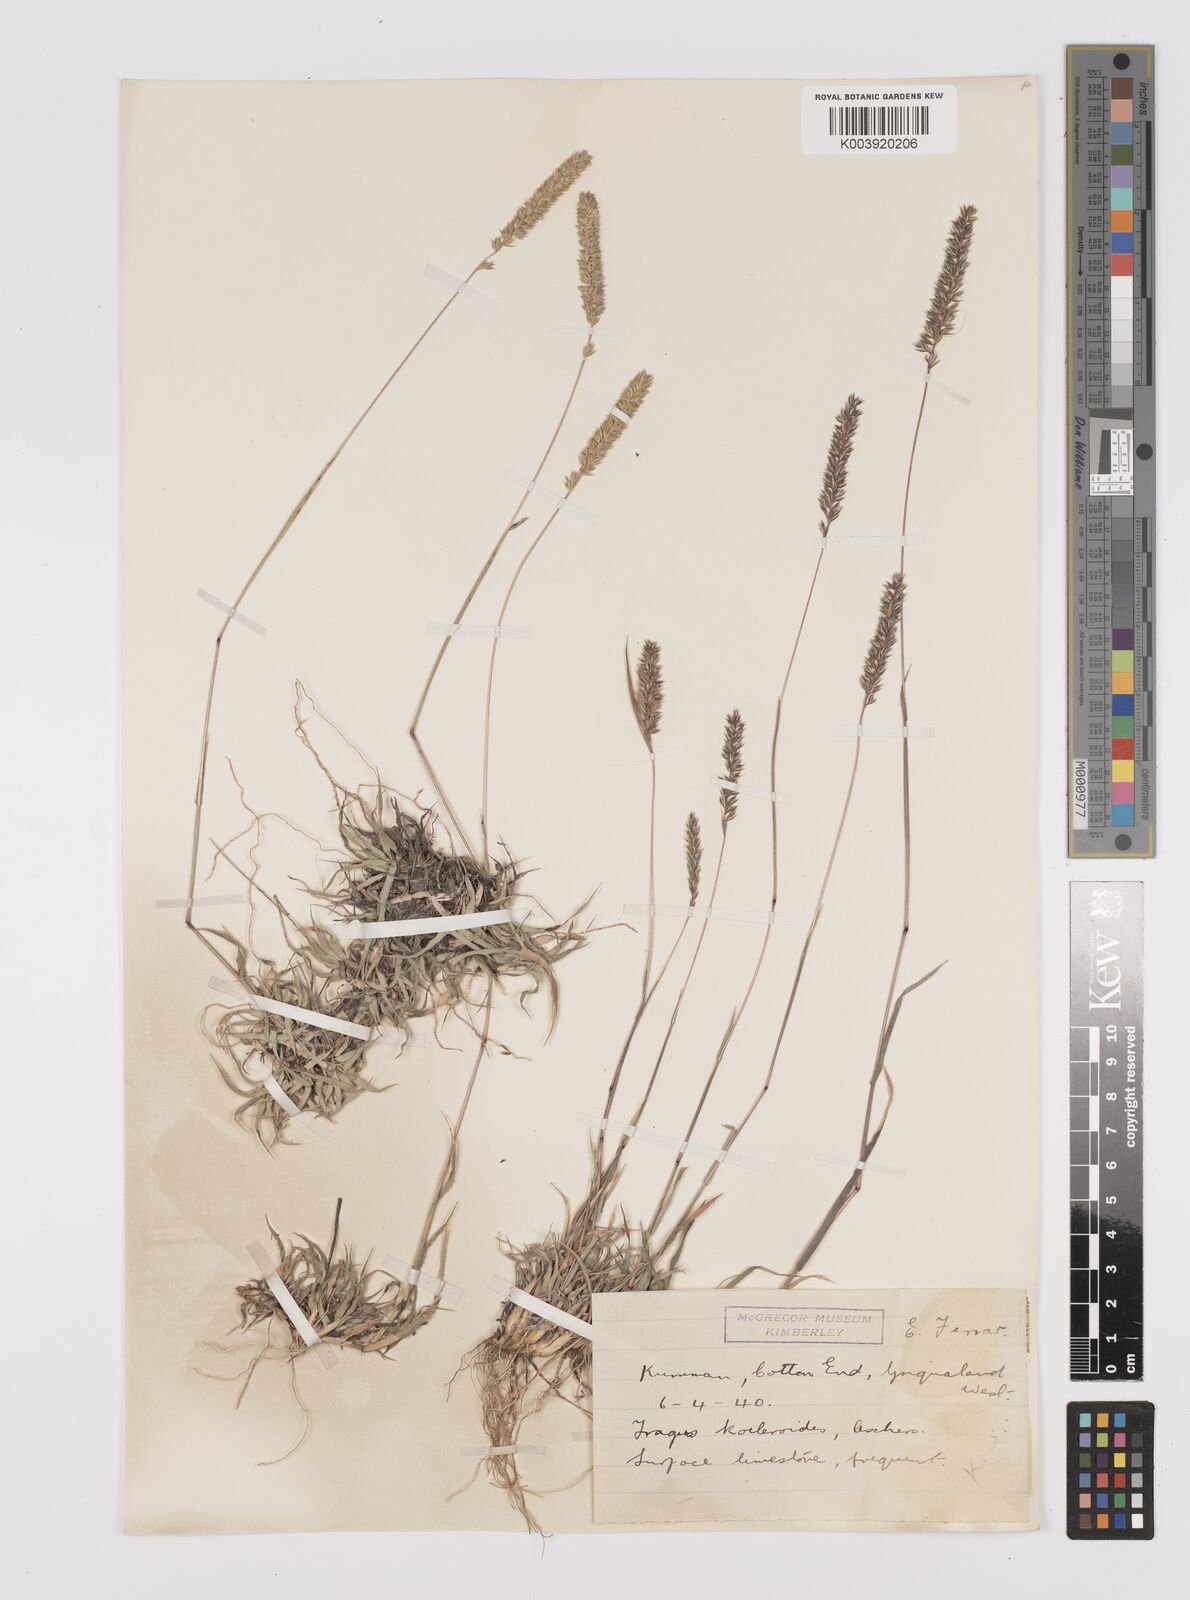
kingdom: Plantae
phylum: Tracheophyta
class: Liliopsida
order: Poales
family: Poaceae
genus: Tragus
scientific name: Tragus koelerioides
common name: Creeping carrot-seed grass
